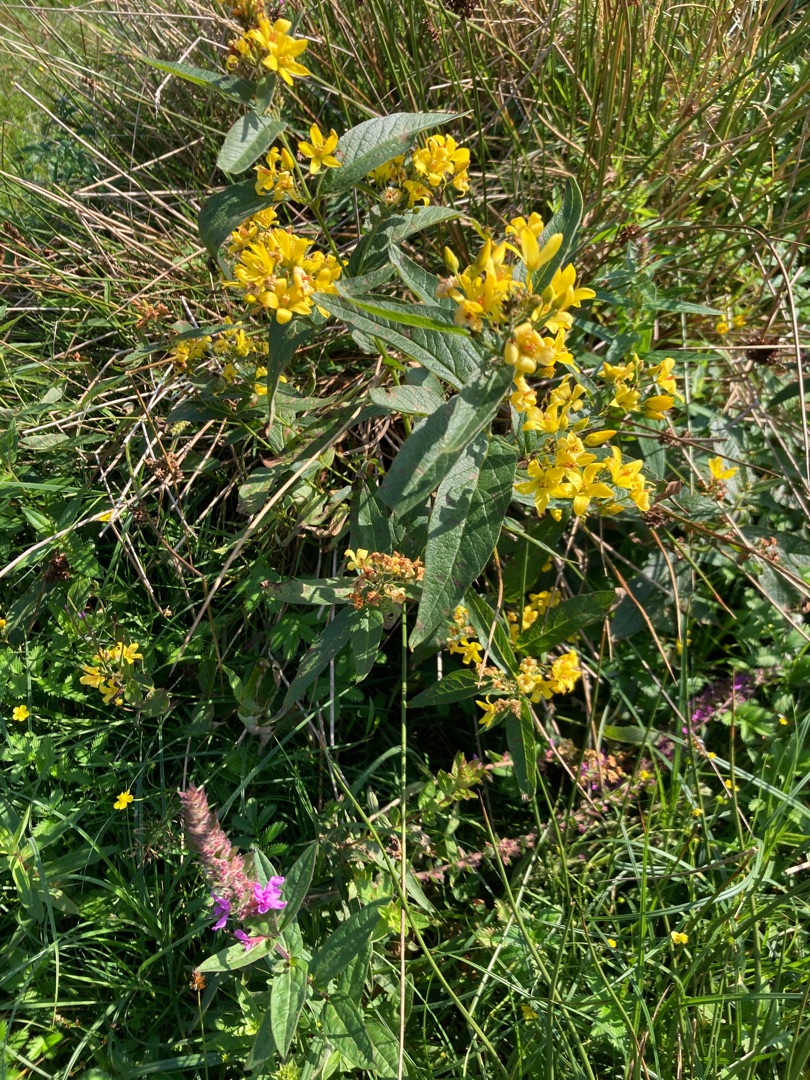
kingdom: Plantae
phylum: Tracheophyta
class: Magnoliopsida
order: Ericales
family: Primulaceae
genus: Lysimachia
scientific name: Lysimachia vulgaris
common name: Almindelig fredløs
